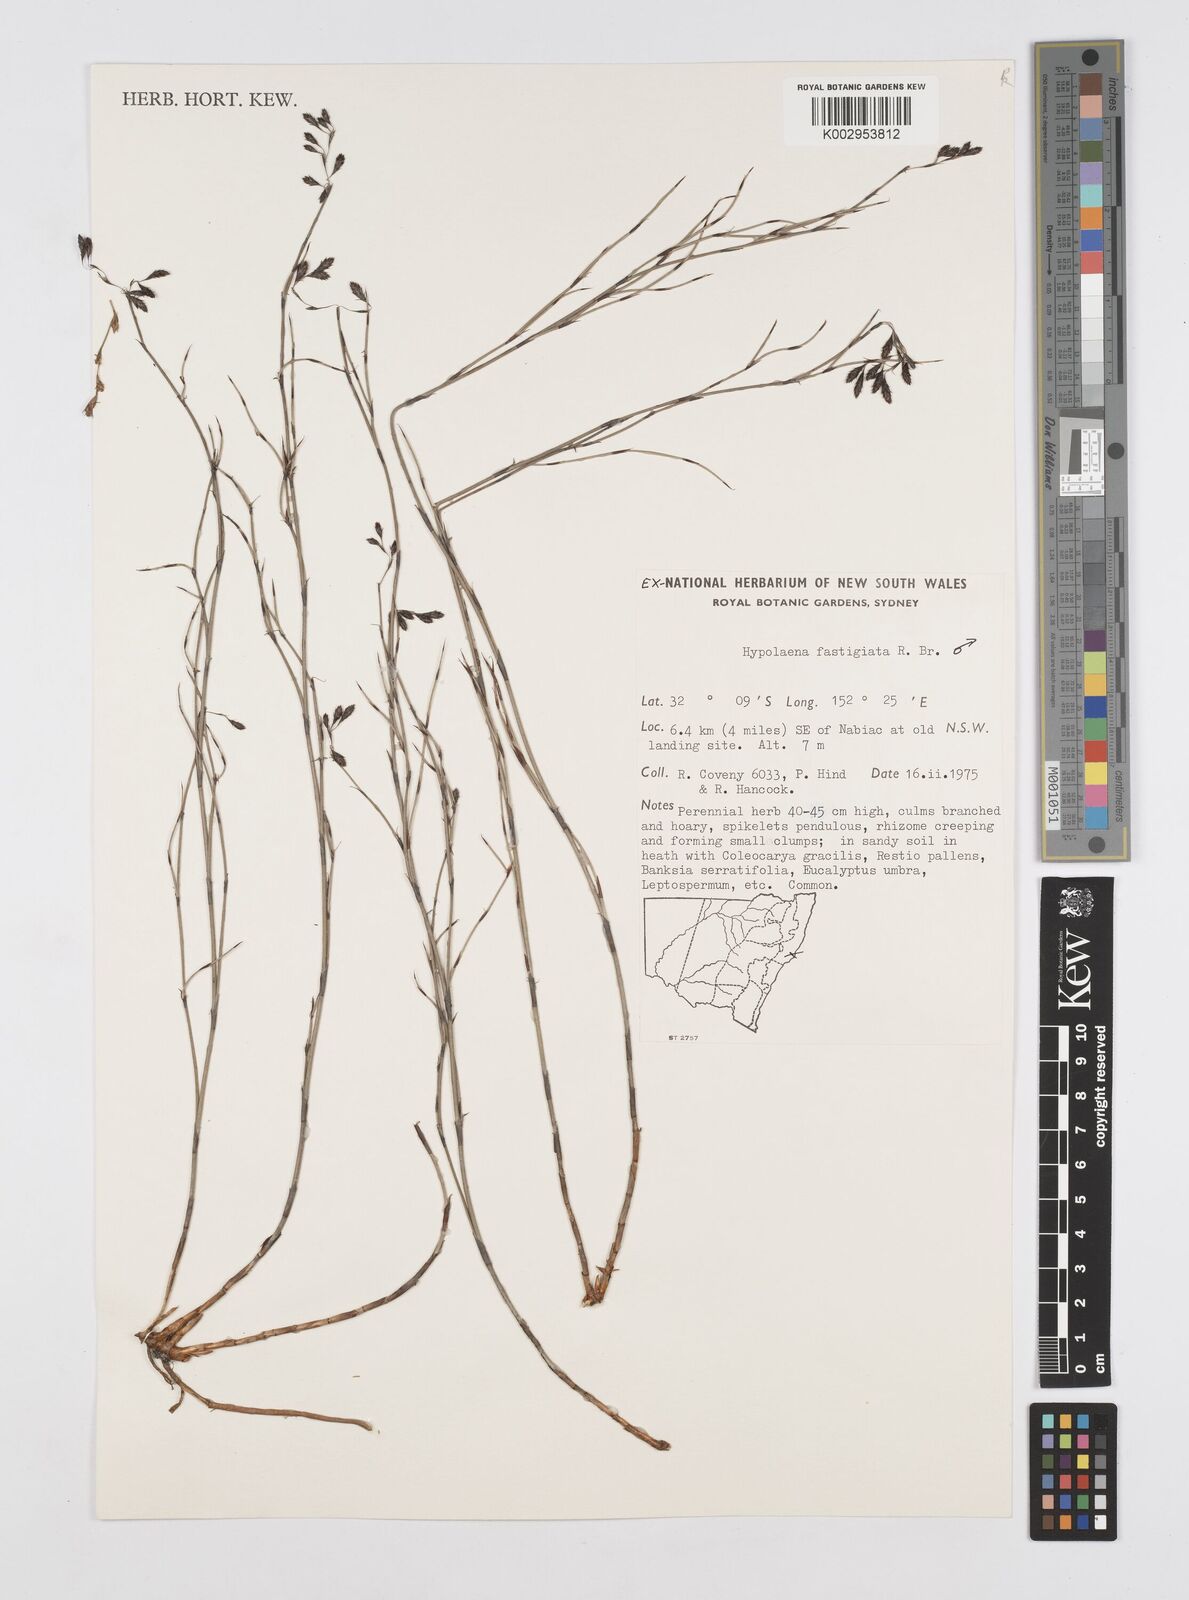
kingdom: Plantae
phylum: Tracheophyta
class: Liliopsida
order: Poales
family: Restionaceae
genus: Hypolaena
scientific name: Hypolaena fastigiata
